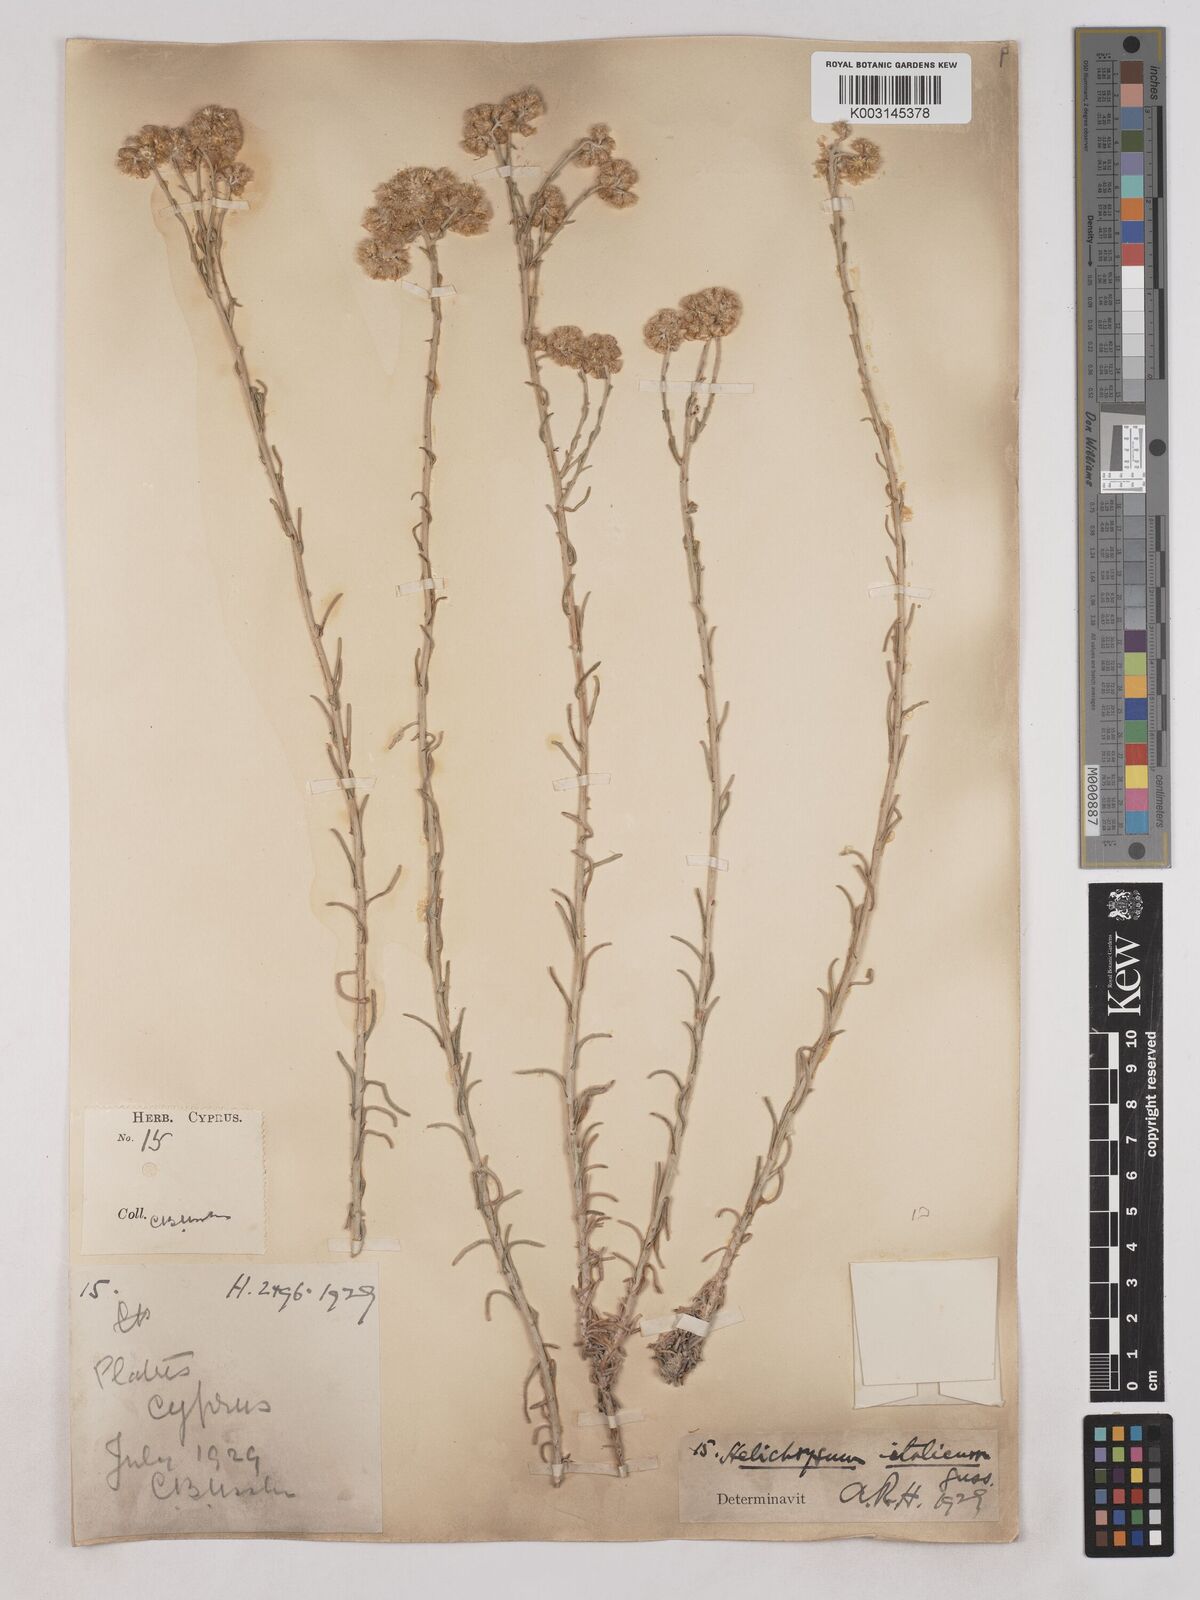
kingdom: Plantae
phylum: Tracheophyta
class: Magnoliopsida
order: Asterales
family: Asteraceae
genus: Helichrysum
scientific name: Helichrysum italicum
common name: Curryplant
